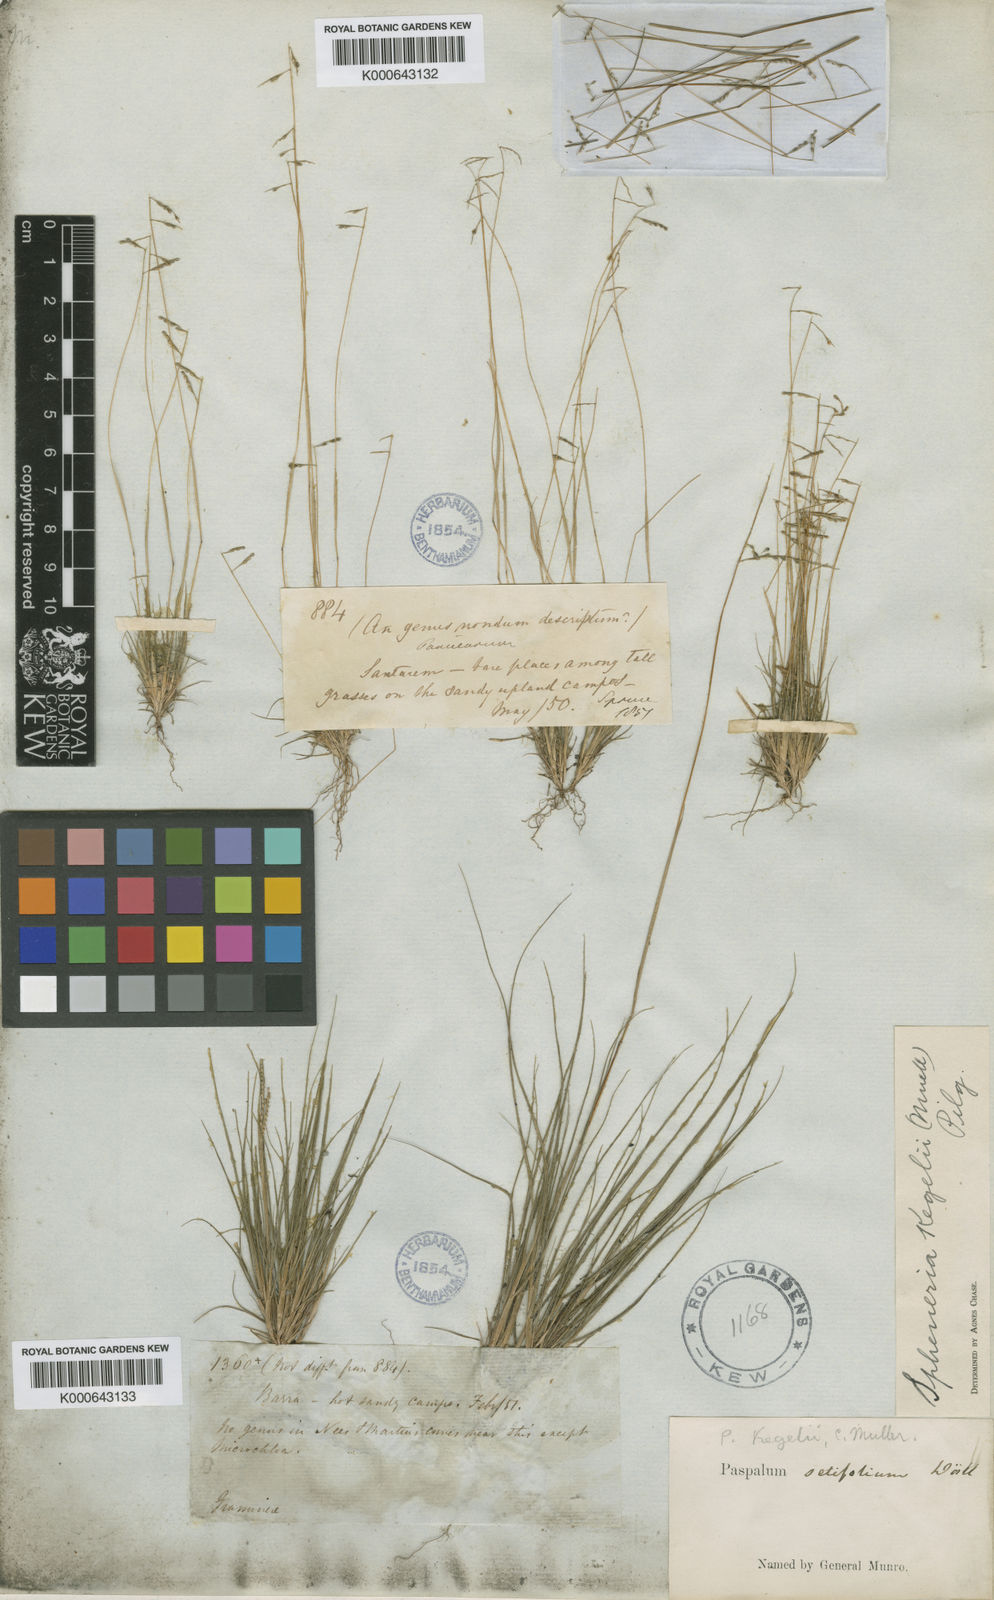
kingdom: Plantae
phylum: Tracheophyta
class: Liliopsida
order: Poales
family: Poaceae
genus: Spheneria
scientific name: Spheneria
